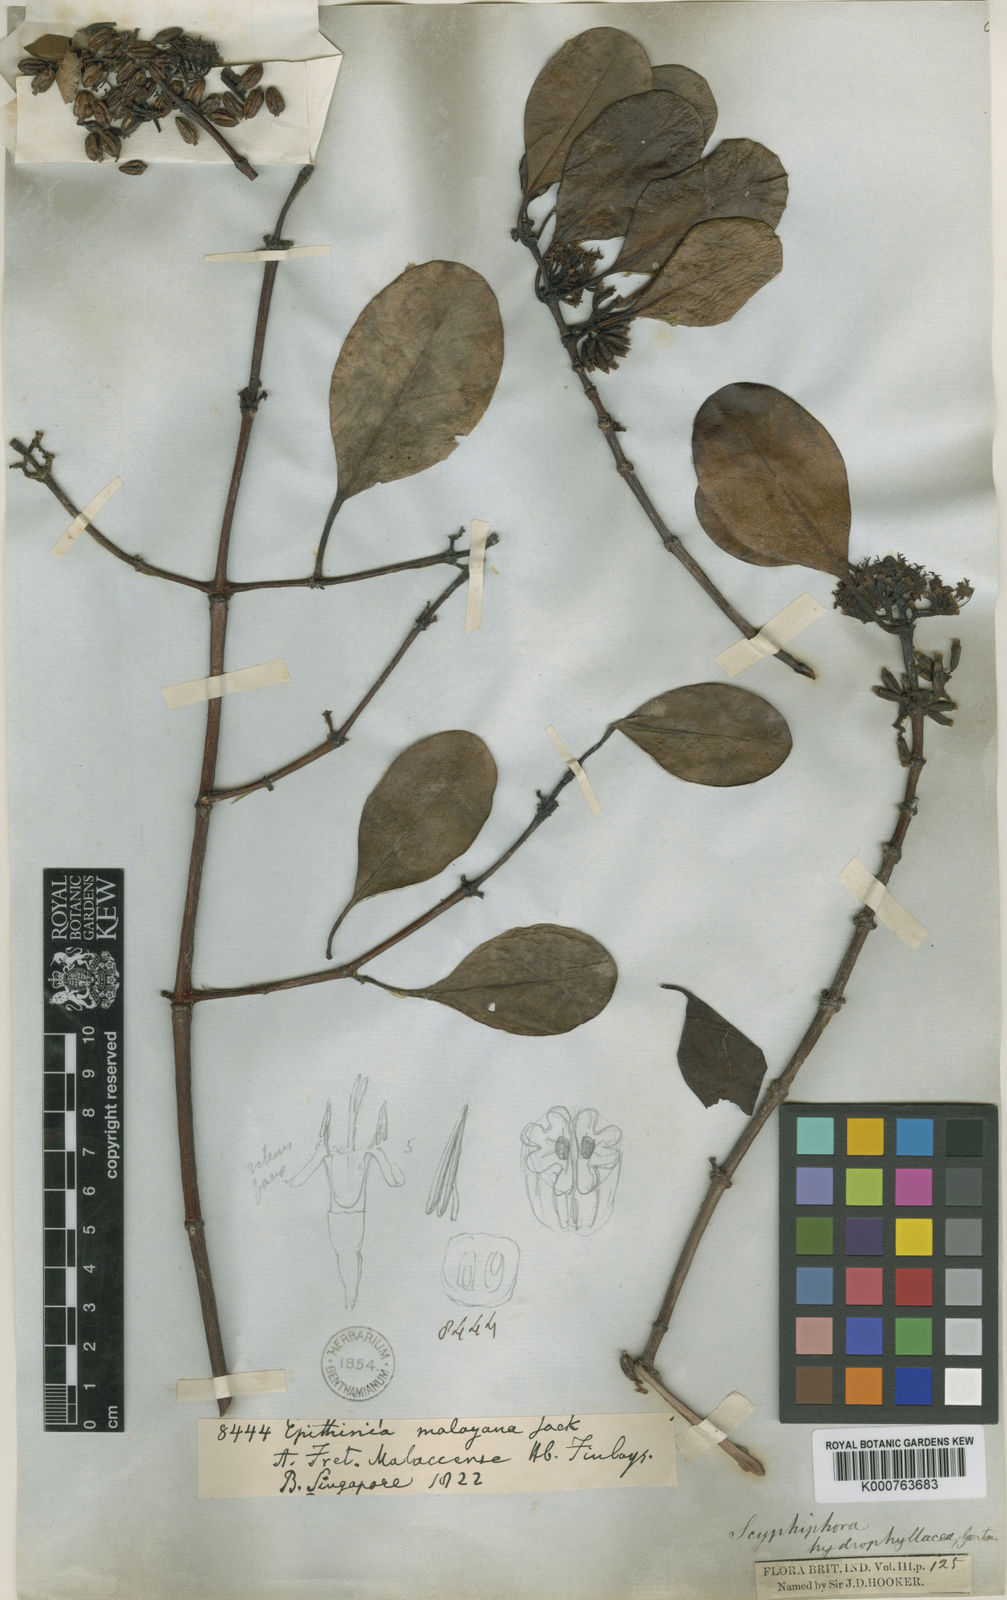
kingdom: Plantae
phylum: Tracheophyta
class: Magnoliopsida
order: Gentianales
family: Rubiaceae
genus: Scyphiphora
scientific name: Scyphiphora
